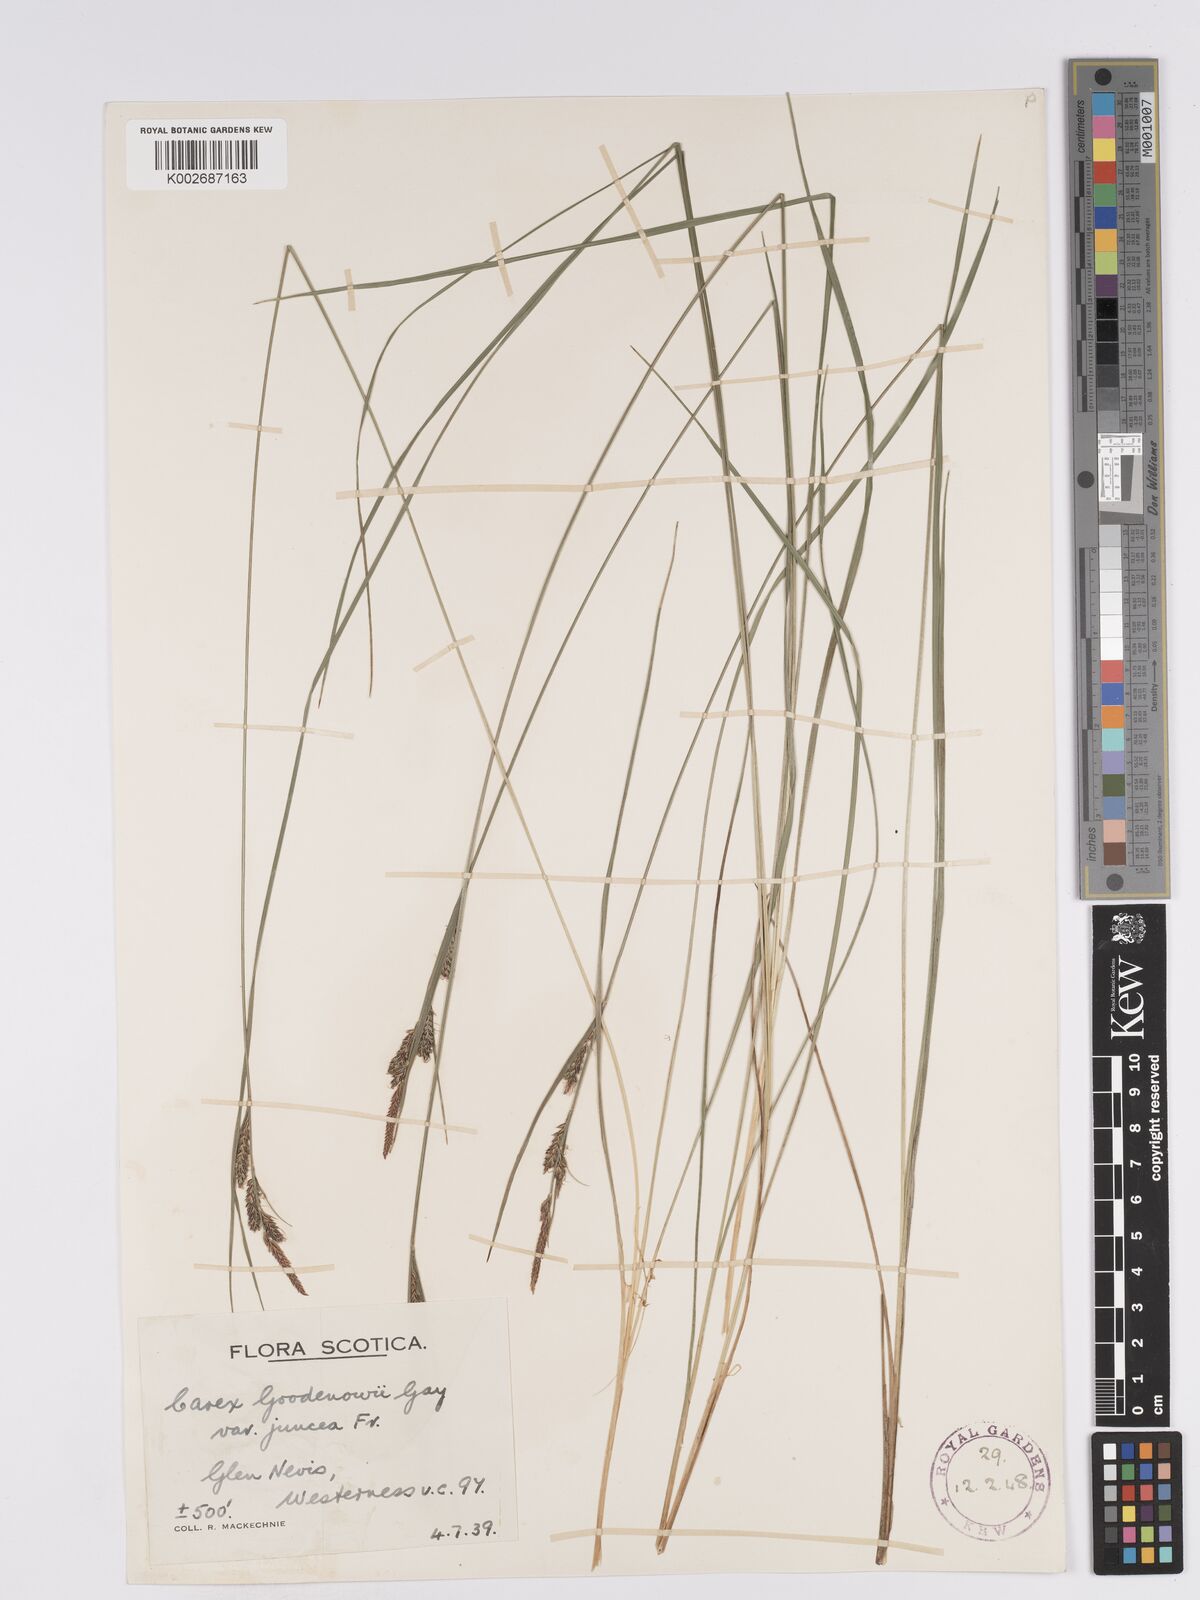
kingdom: Plantae
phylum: Tracheophyta
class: Liliopsida
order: Poales
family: Cyperaceae
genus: Carex
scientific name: Carex nigra
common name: Common sedge
